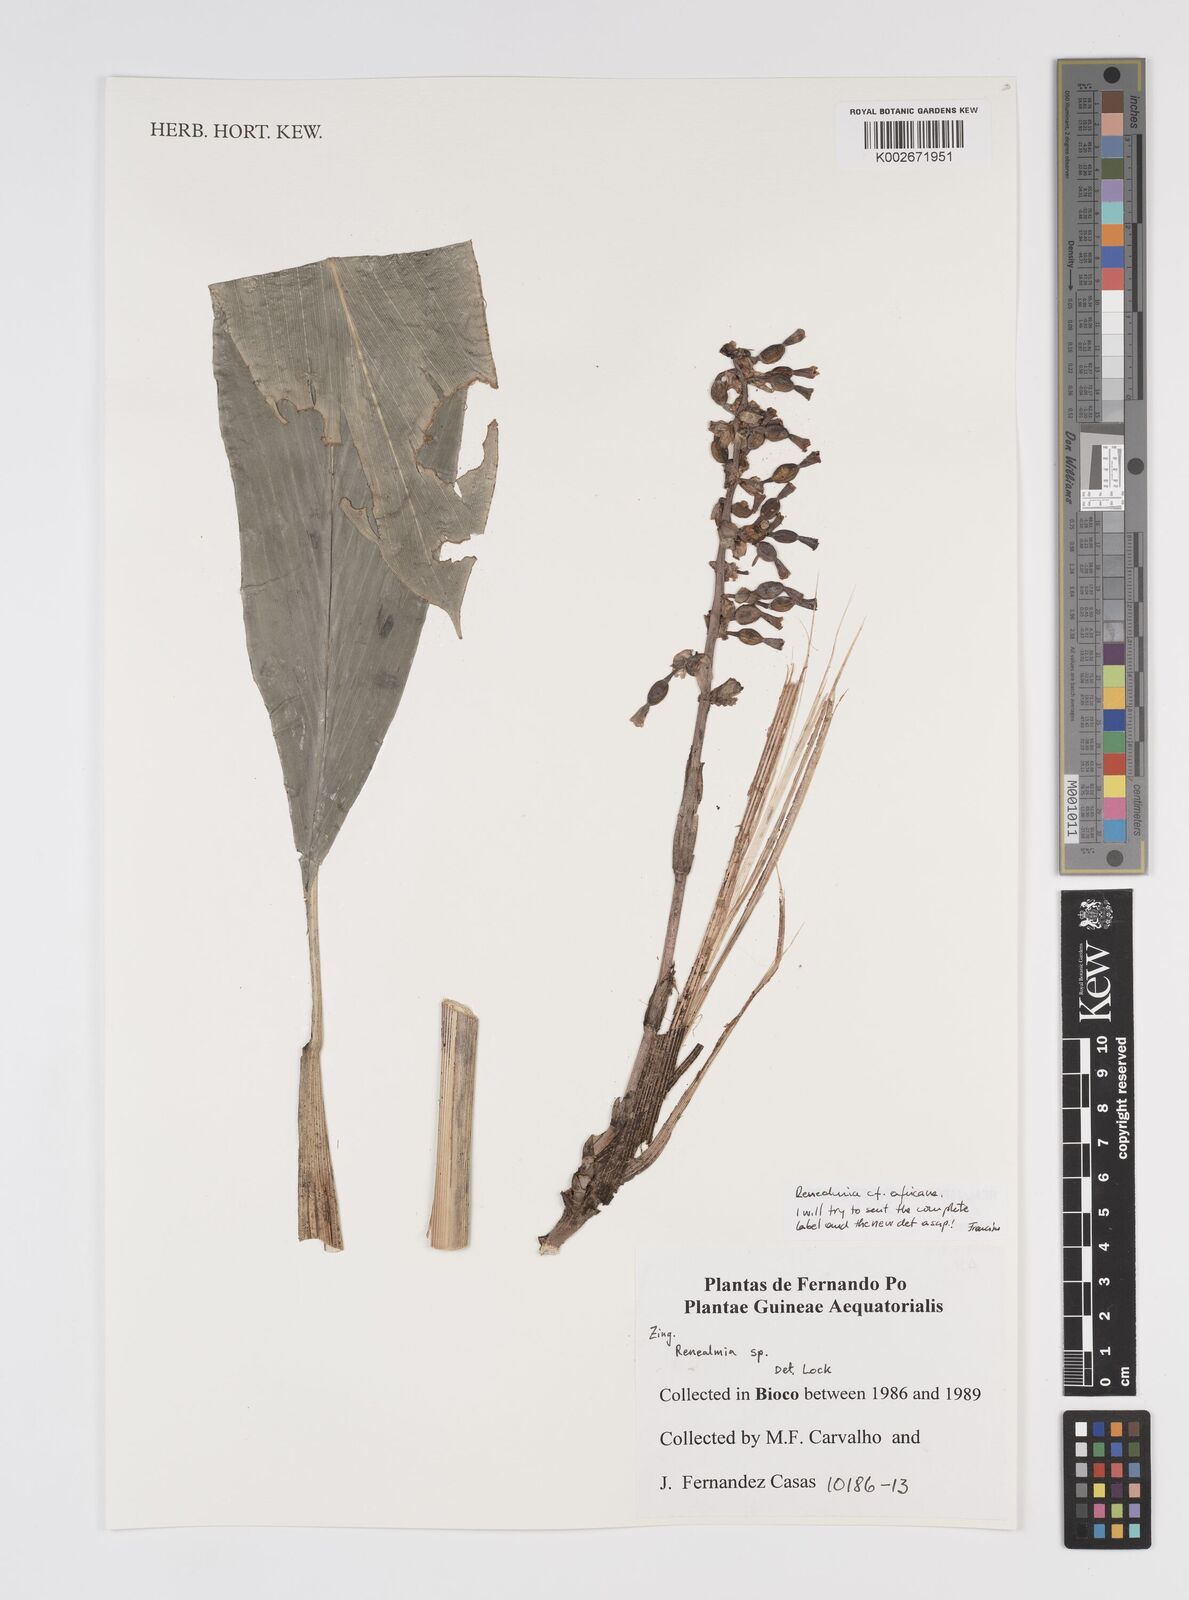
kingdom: Plantae
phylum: Tracheophyta
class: Liliopsida
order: Zingiberales
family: Zingiberaceae
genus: Renealmia
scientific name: Renealmia
